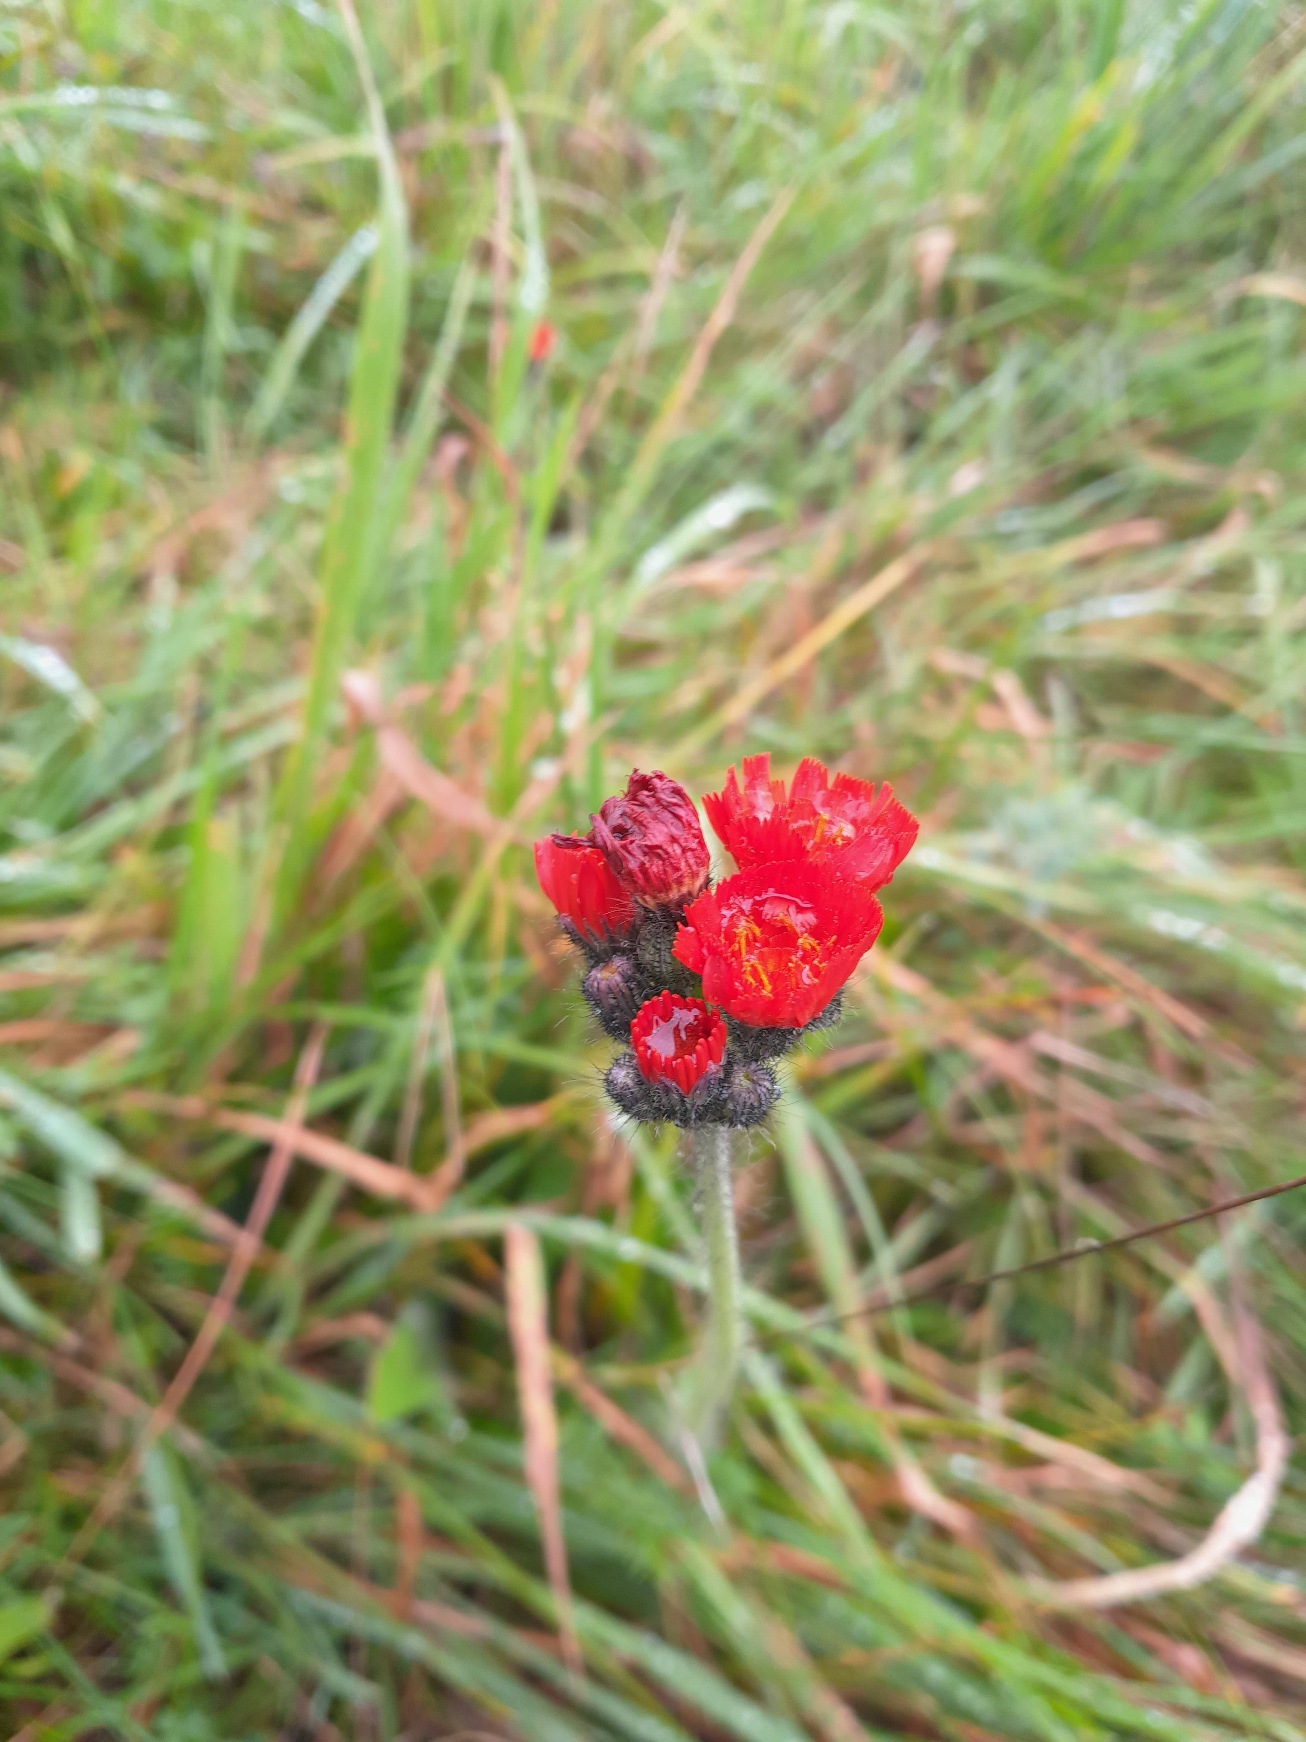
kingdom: Plantae
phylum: Tracheophyta
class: Magnoliopsida
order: Asterales
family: Asteraceae
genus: Pilosella
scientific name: Pilosella aurantiaca
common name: Pomerans-høgeurt
